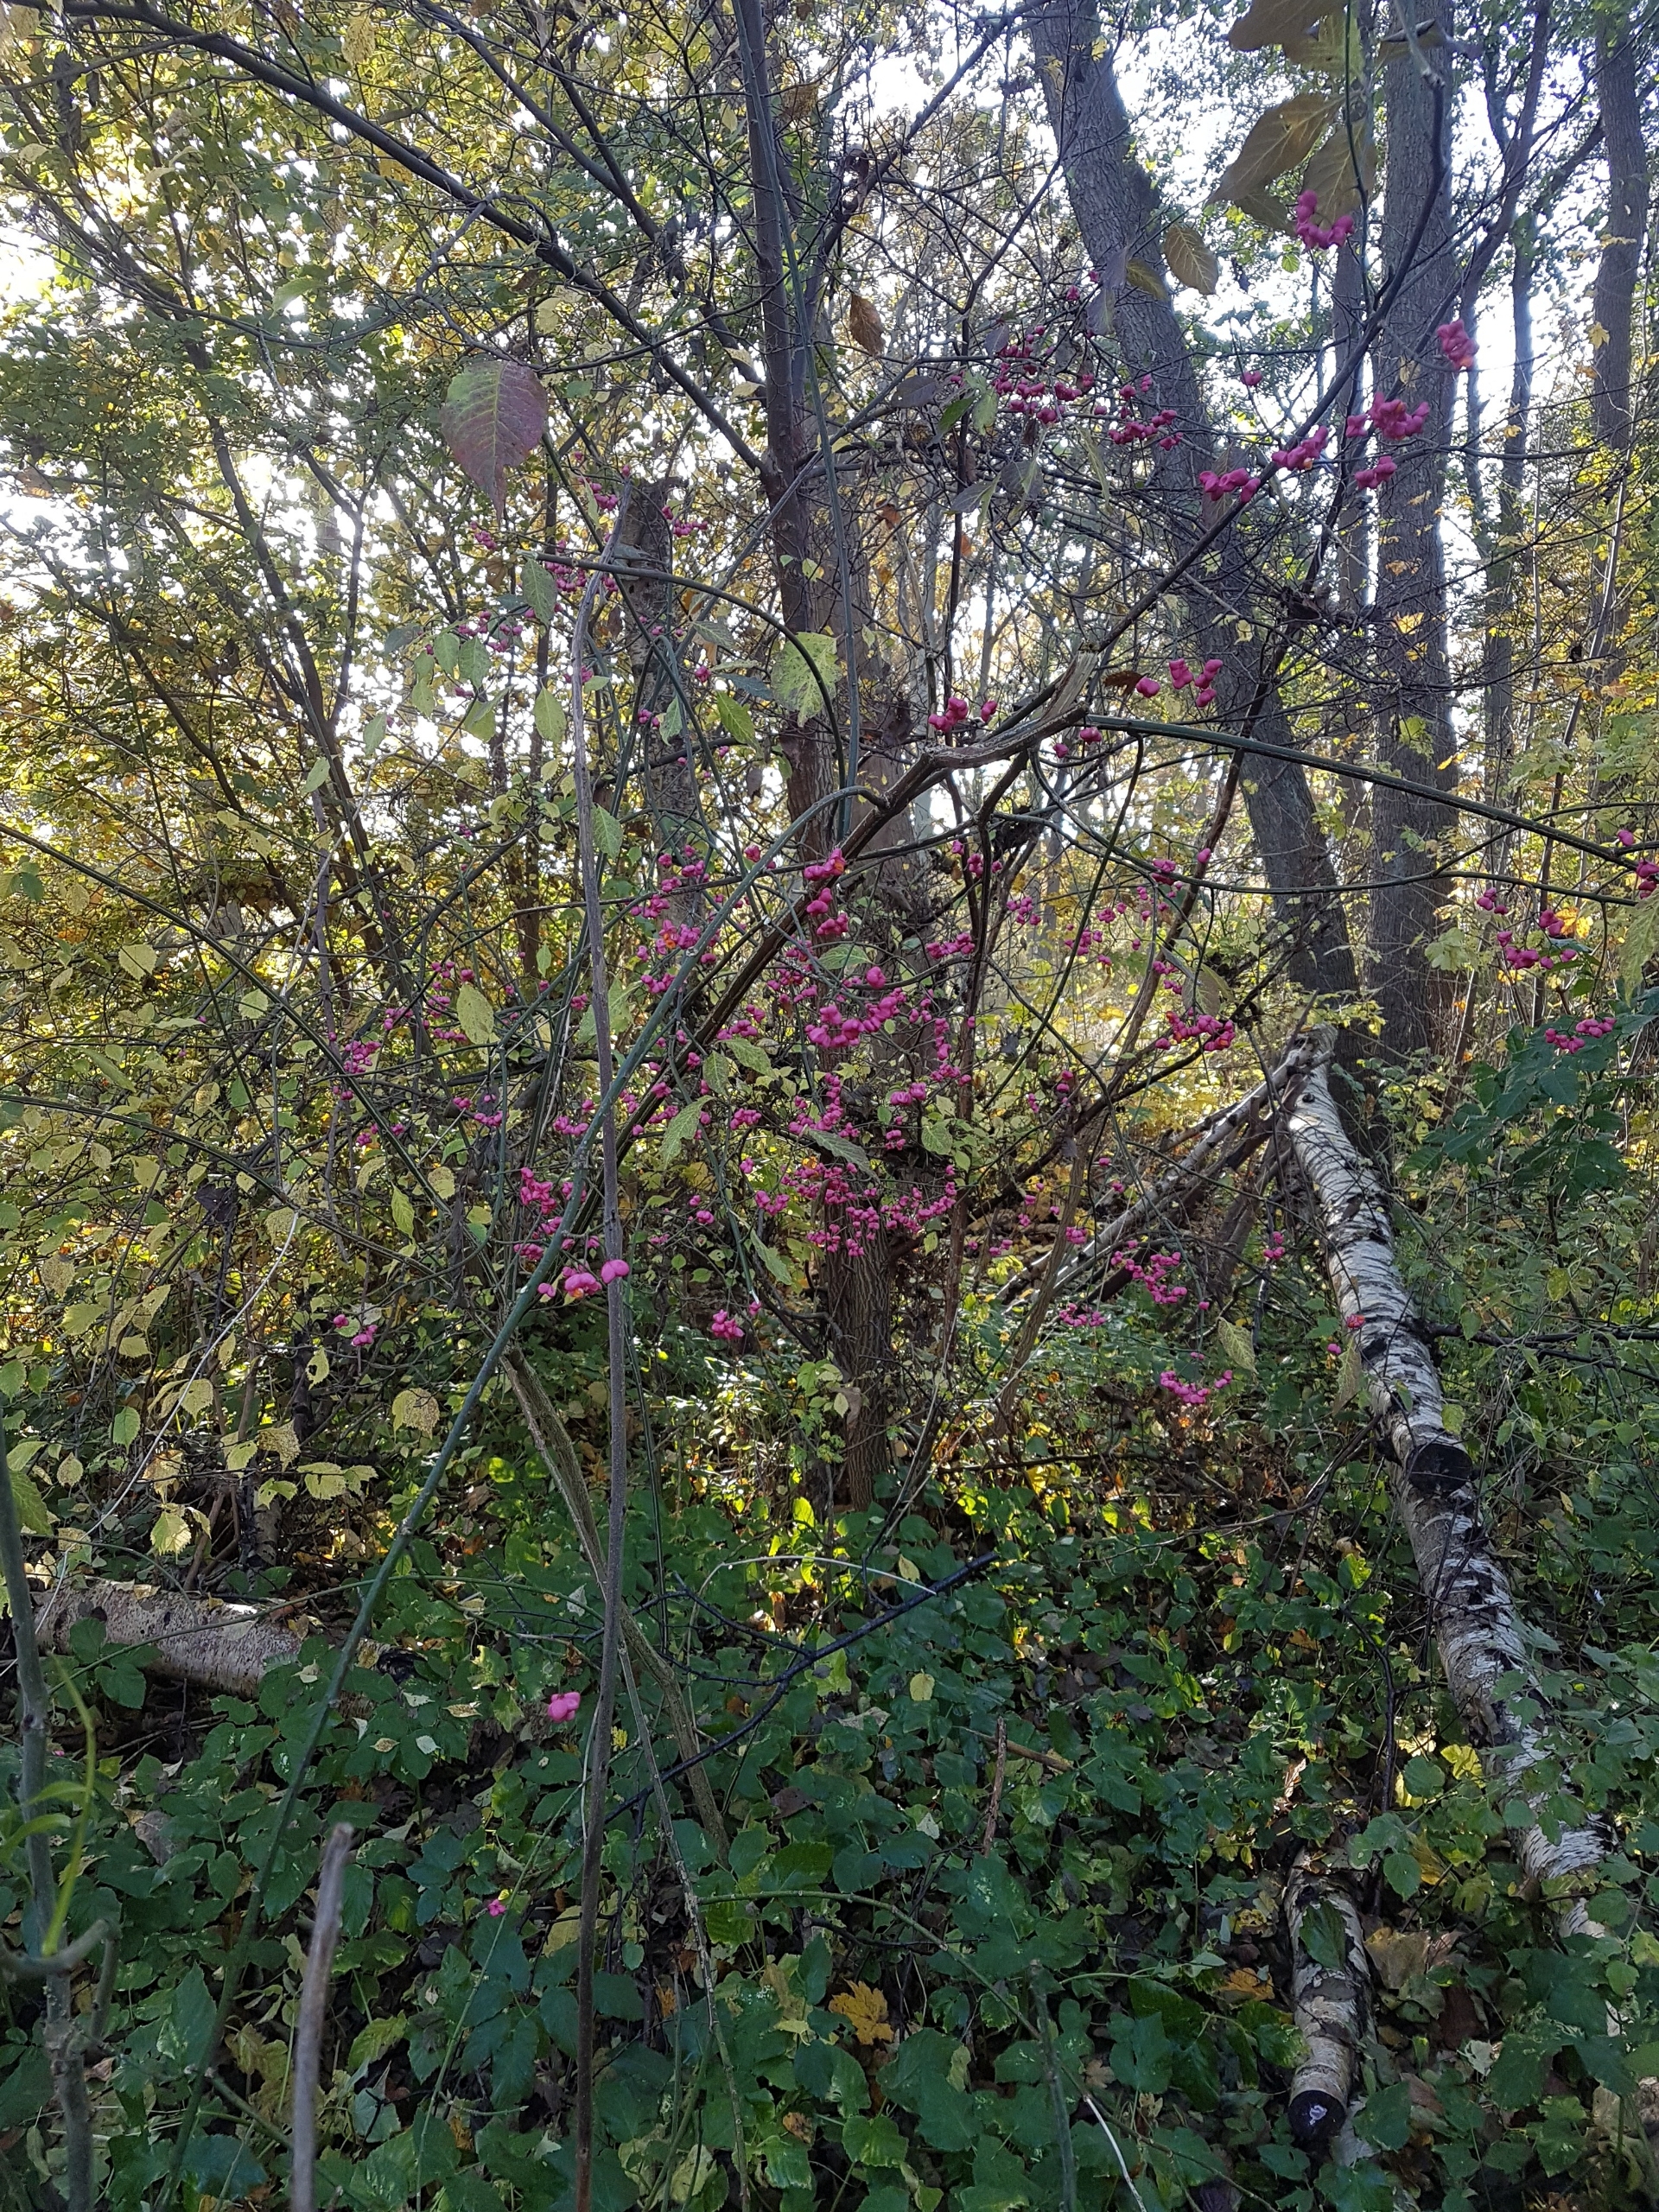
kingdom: Plantae
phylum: Tracheophyta
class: Magnoliopsida
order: Celastrales
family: Celastraceae
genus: Euonymus
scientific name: Euonymus europaeus
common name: Benved
